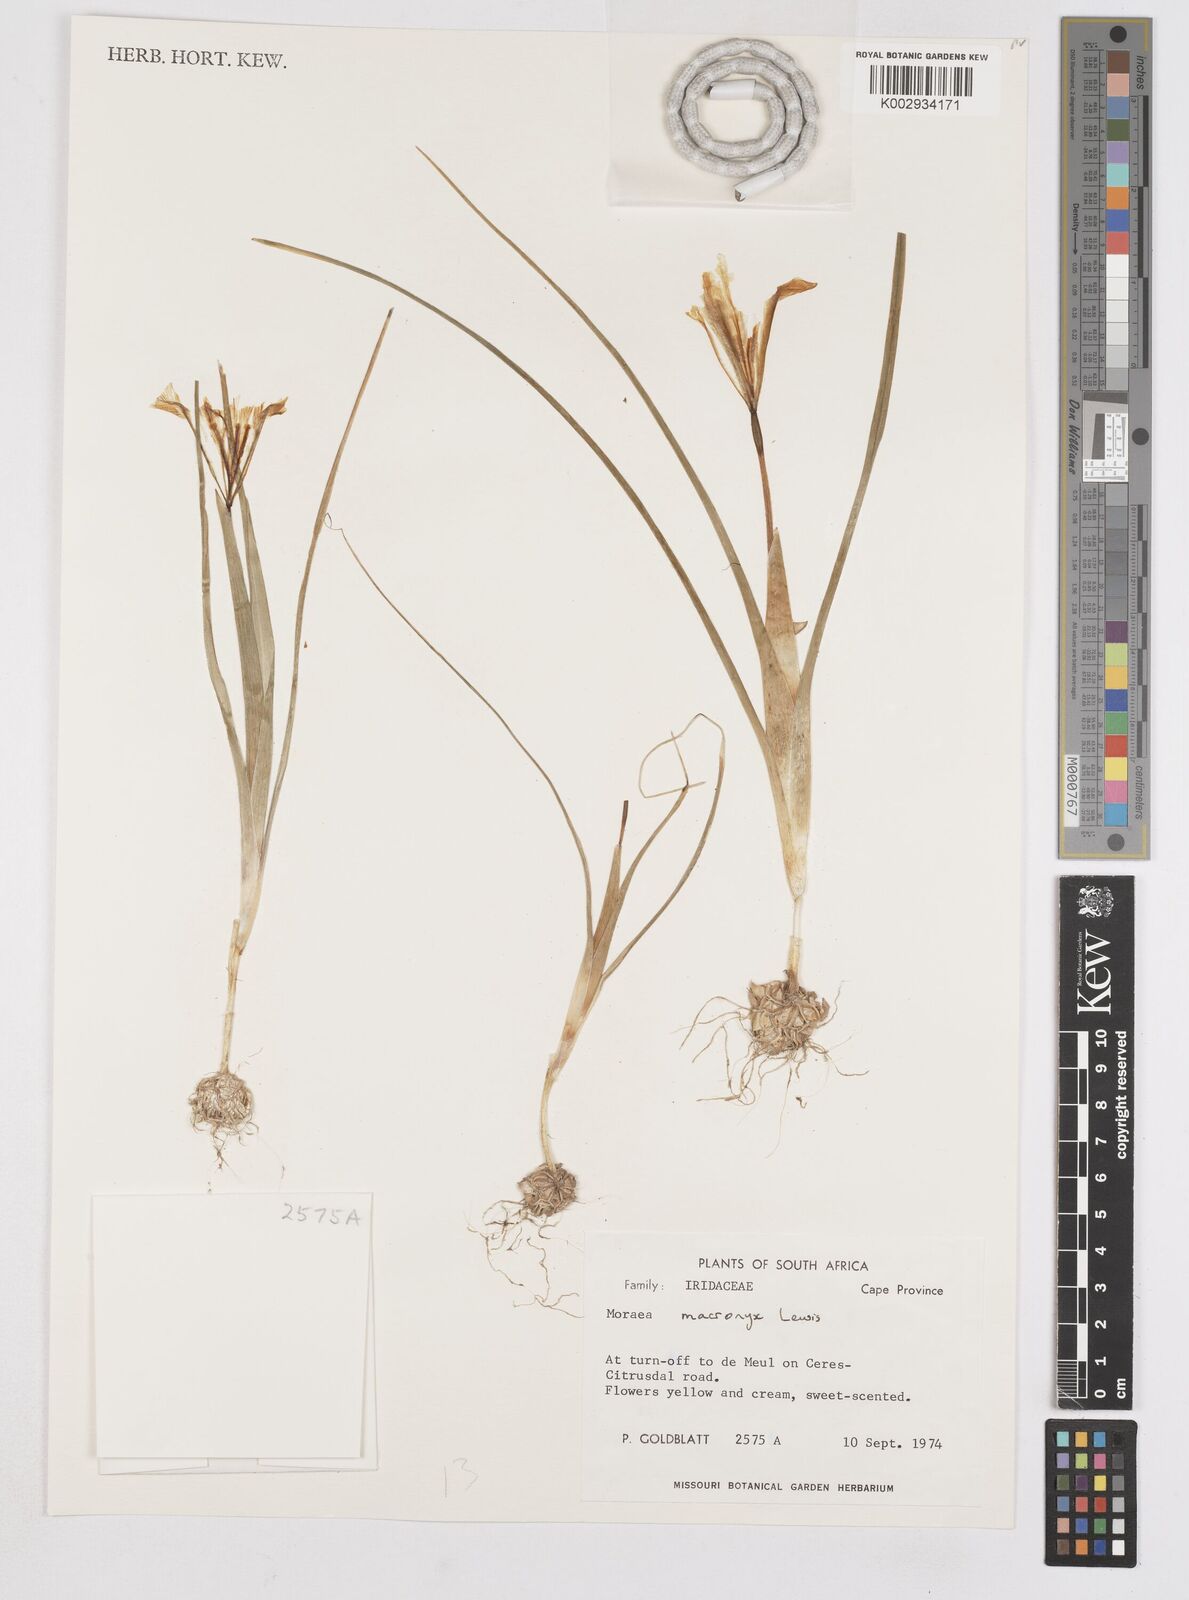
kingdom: Plantae
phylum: Tracheophyta
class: Liliopsida
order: Asparagales
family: Iridaceae
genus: Moraea
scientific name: Moraea macronyx
